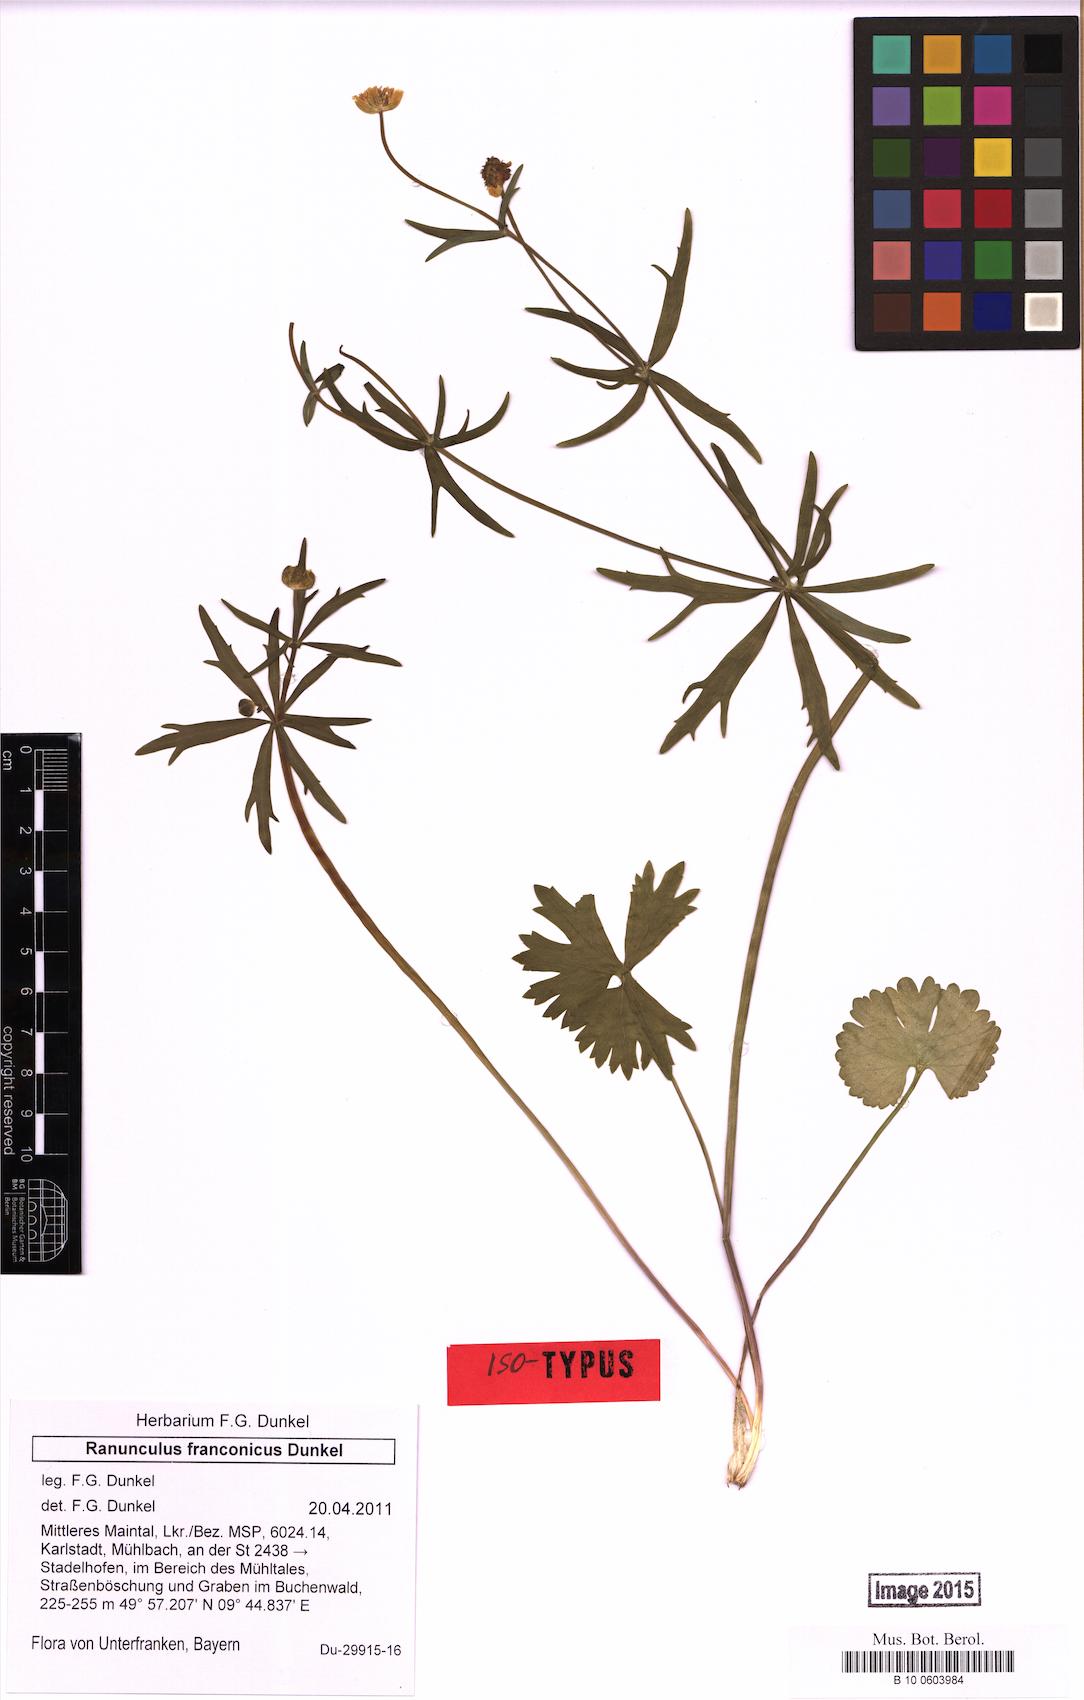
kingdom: Plantae
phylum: Tracheophyta
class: Magnoliopsida
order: Ranunculales
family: Ranunculaceae
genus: Ranunculus
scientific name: Ranunculus franconicus
